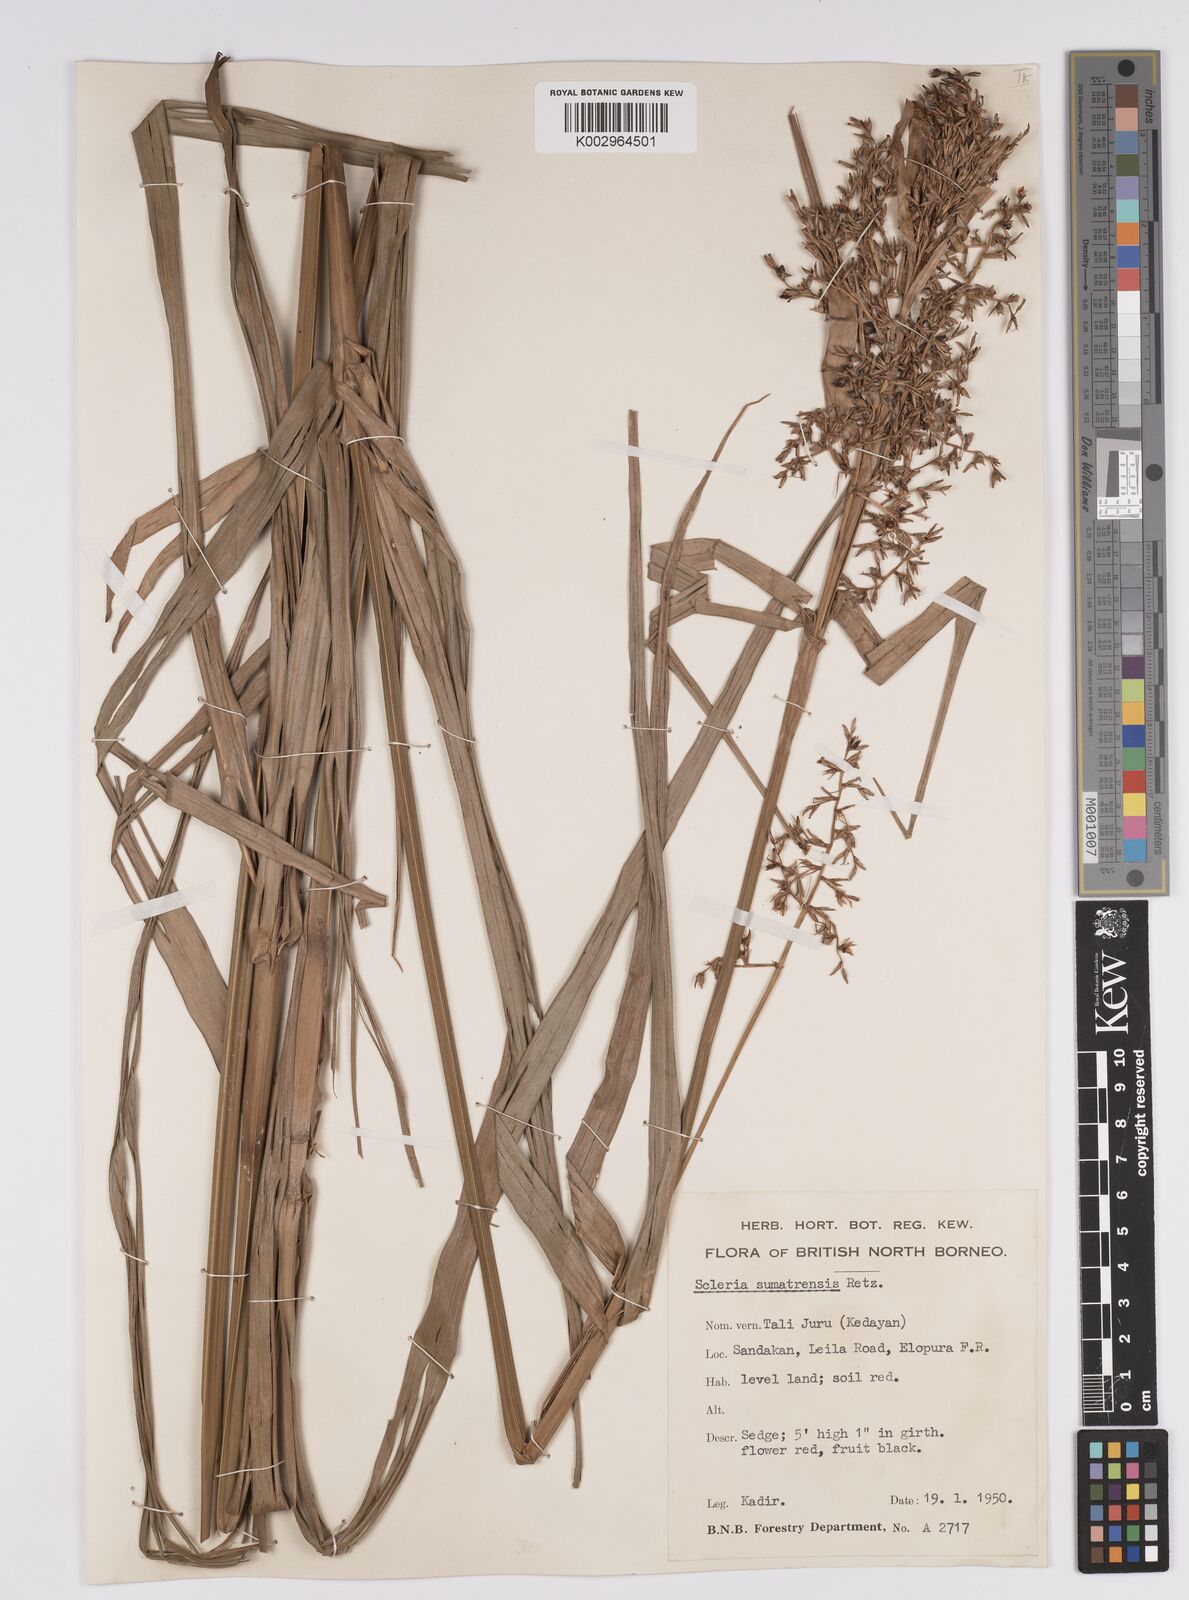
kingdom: Plantae
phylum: Tracheophyta
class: Liliopsida
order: Poales
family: Cyperaceae
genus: Scleria
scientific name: Scleria sumatrensis
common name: Sumatran scleria
